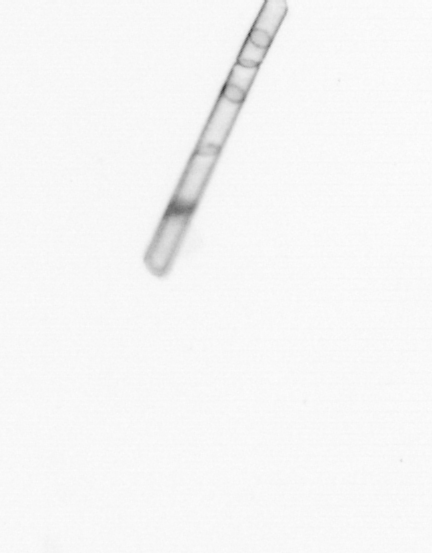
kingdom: Chromista
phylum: Ochrophyta
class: Bacillariophyceae
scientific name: Bacillariophyceae
